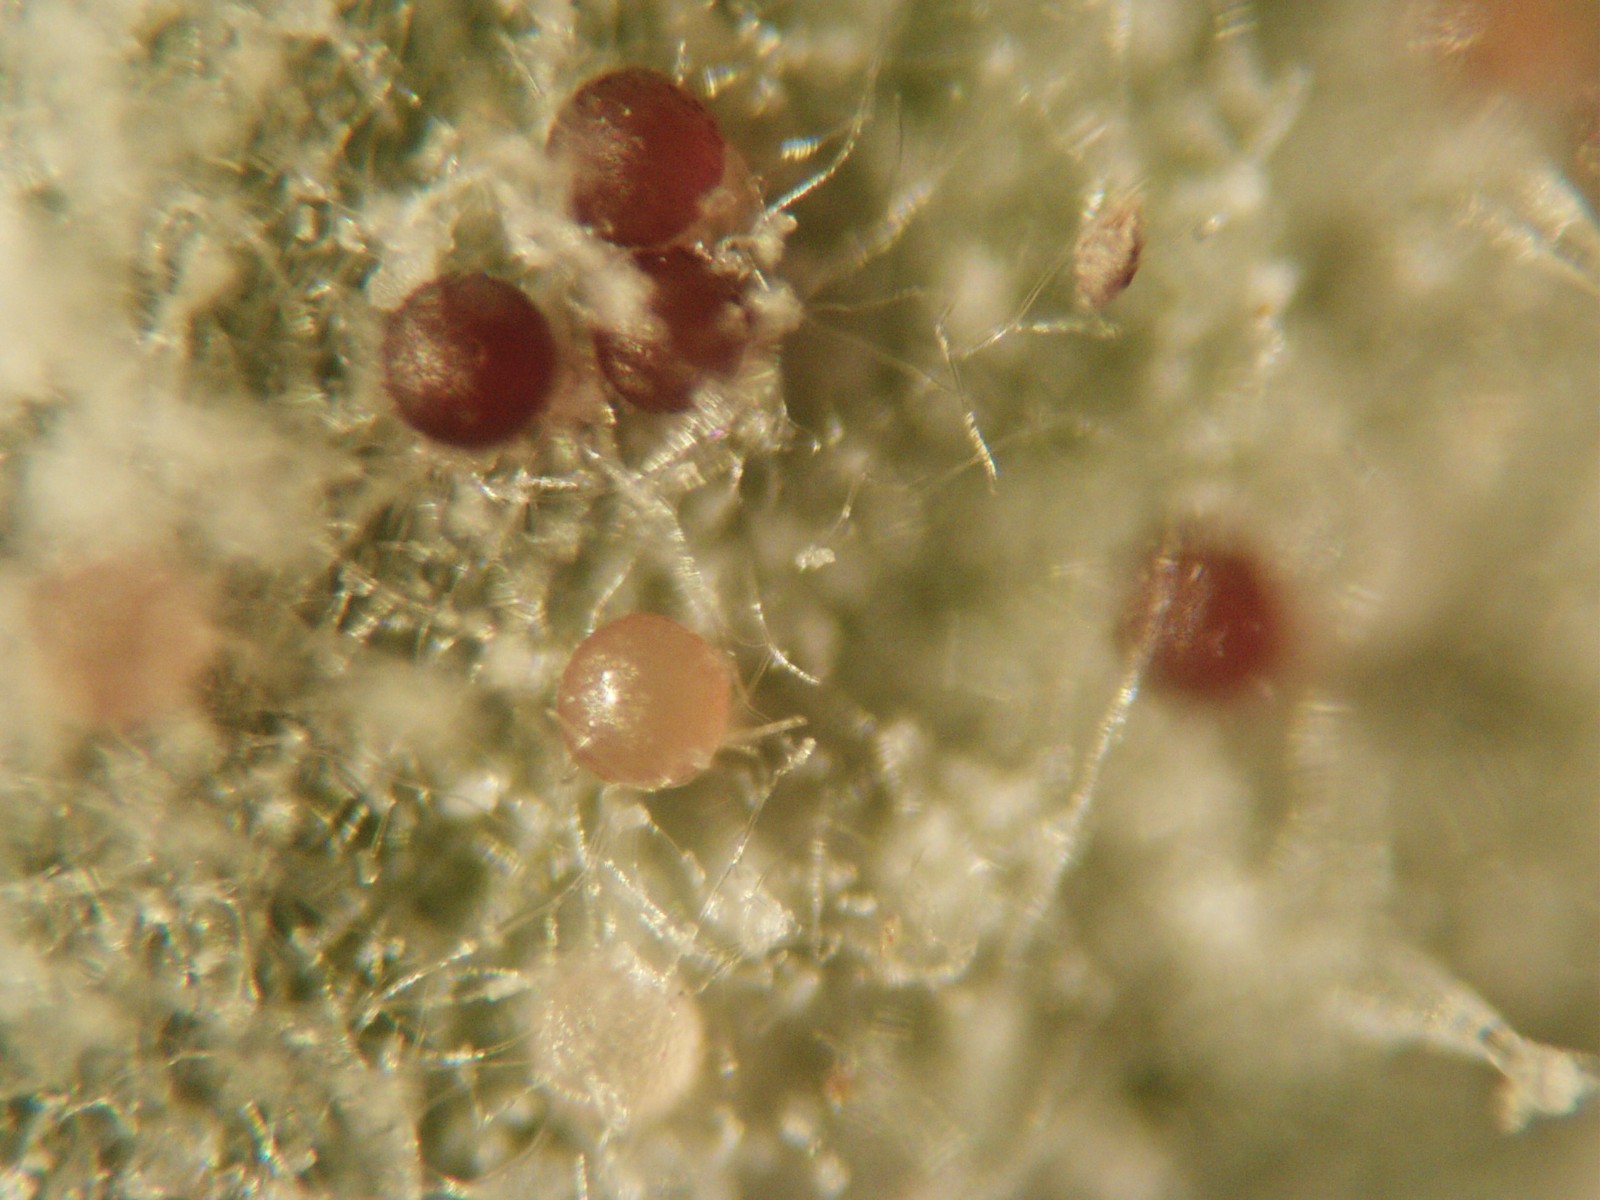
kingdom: Fungi
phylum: Ascomycota
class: Leotiomycetes
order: Helotiales
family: Erysiphaceae
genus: Neoerysiphe
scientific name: Neoerysiphe galii
